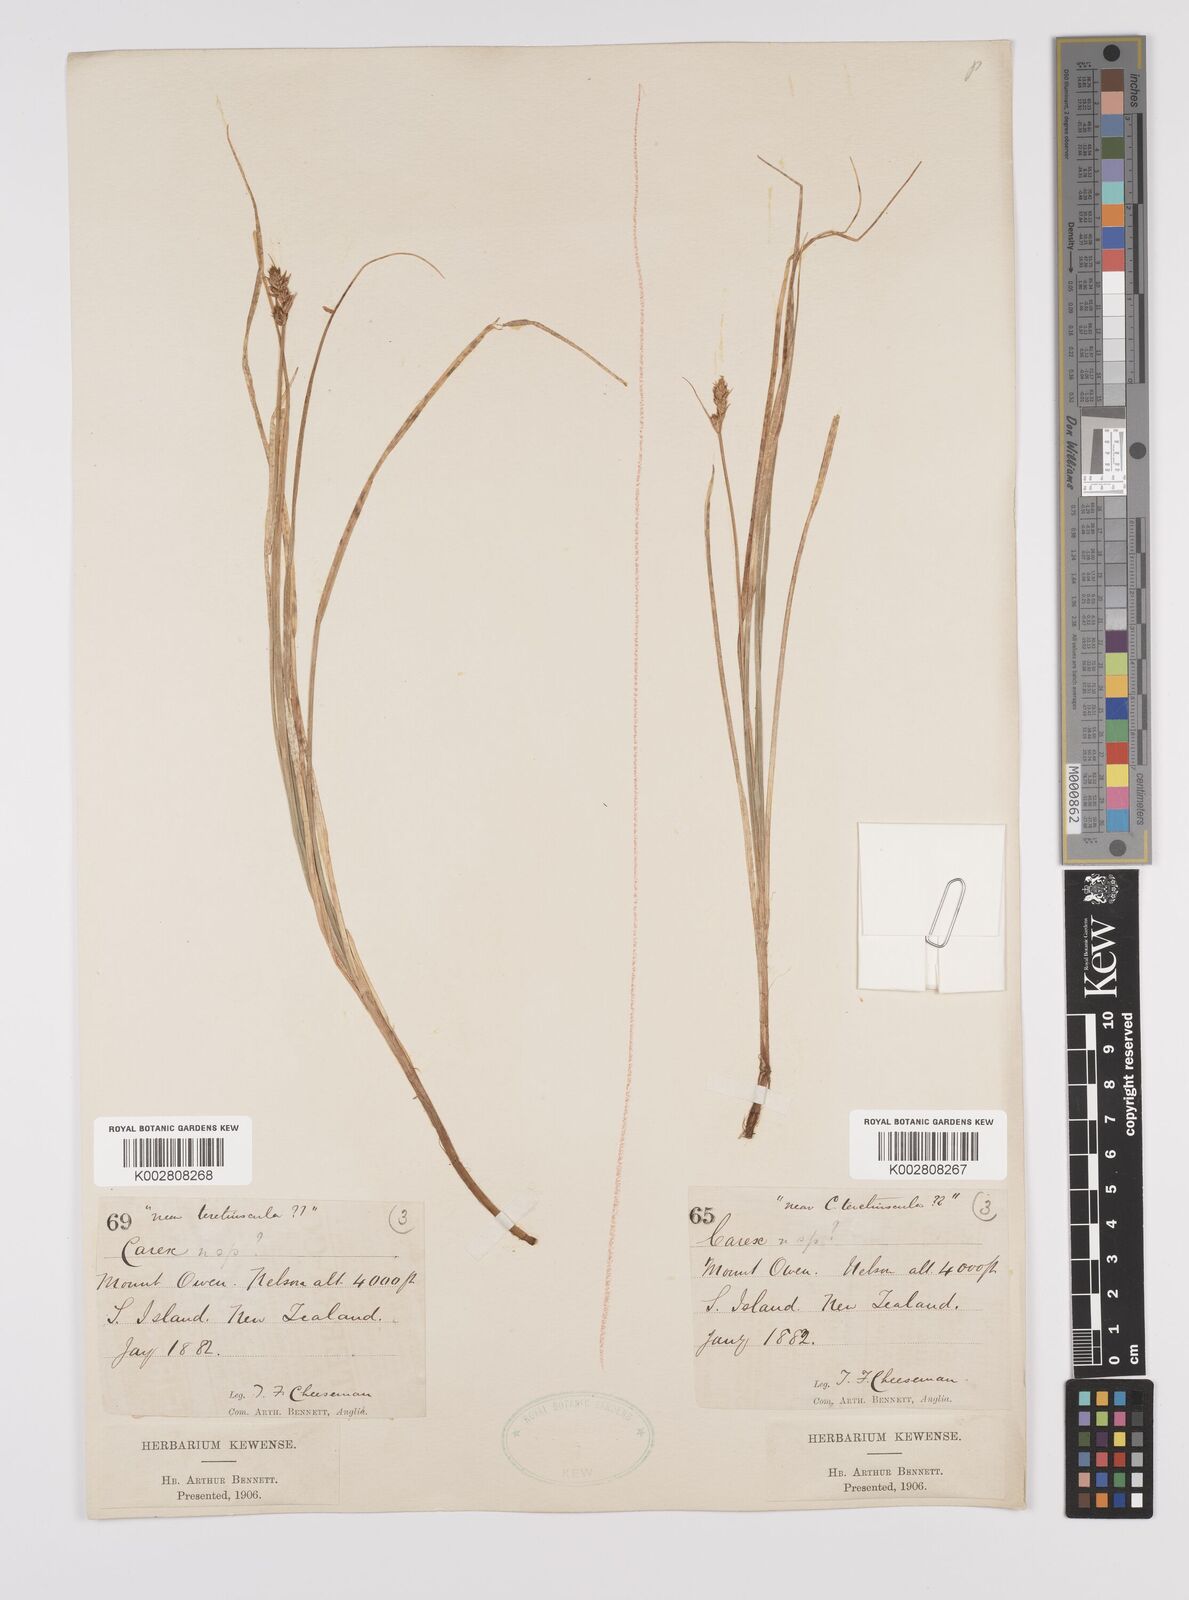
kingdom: Plantae
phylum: Tracheophyta
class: Liliopsida
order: Poales
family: Cyperaceae
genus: Carex
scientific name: Carex diandra
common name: Lesser tussock-sedge
